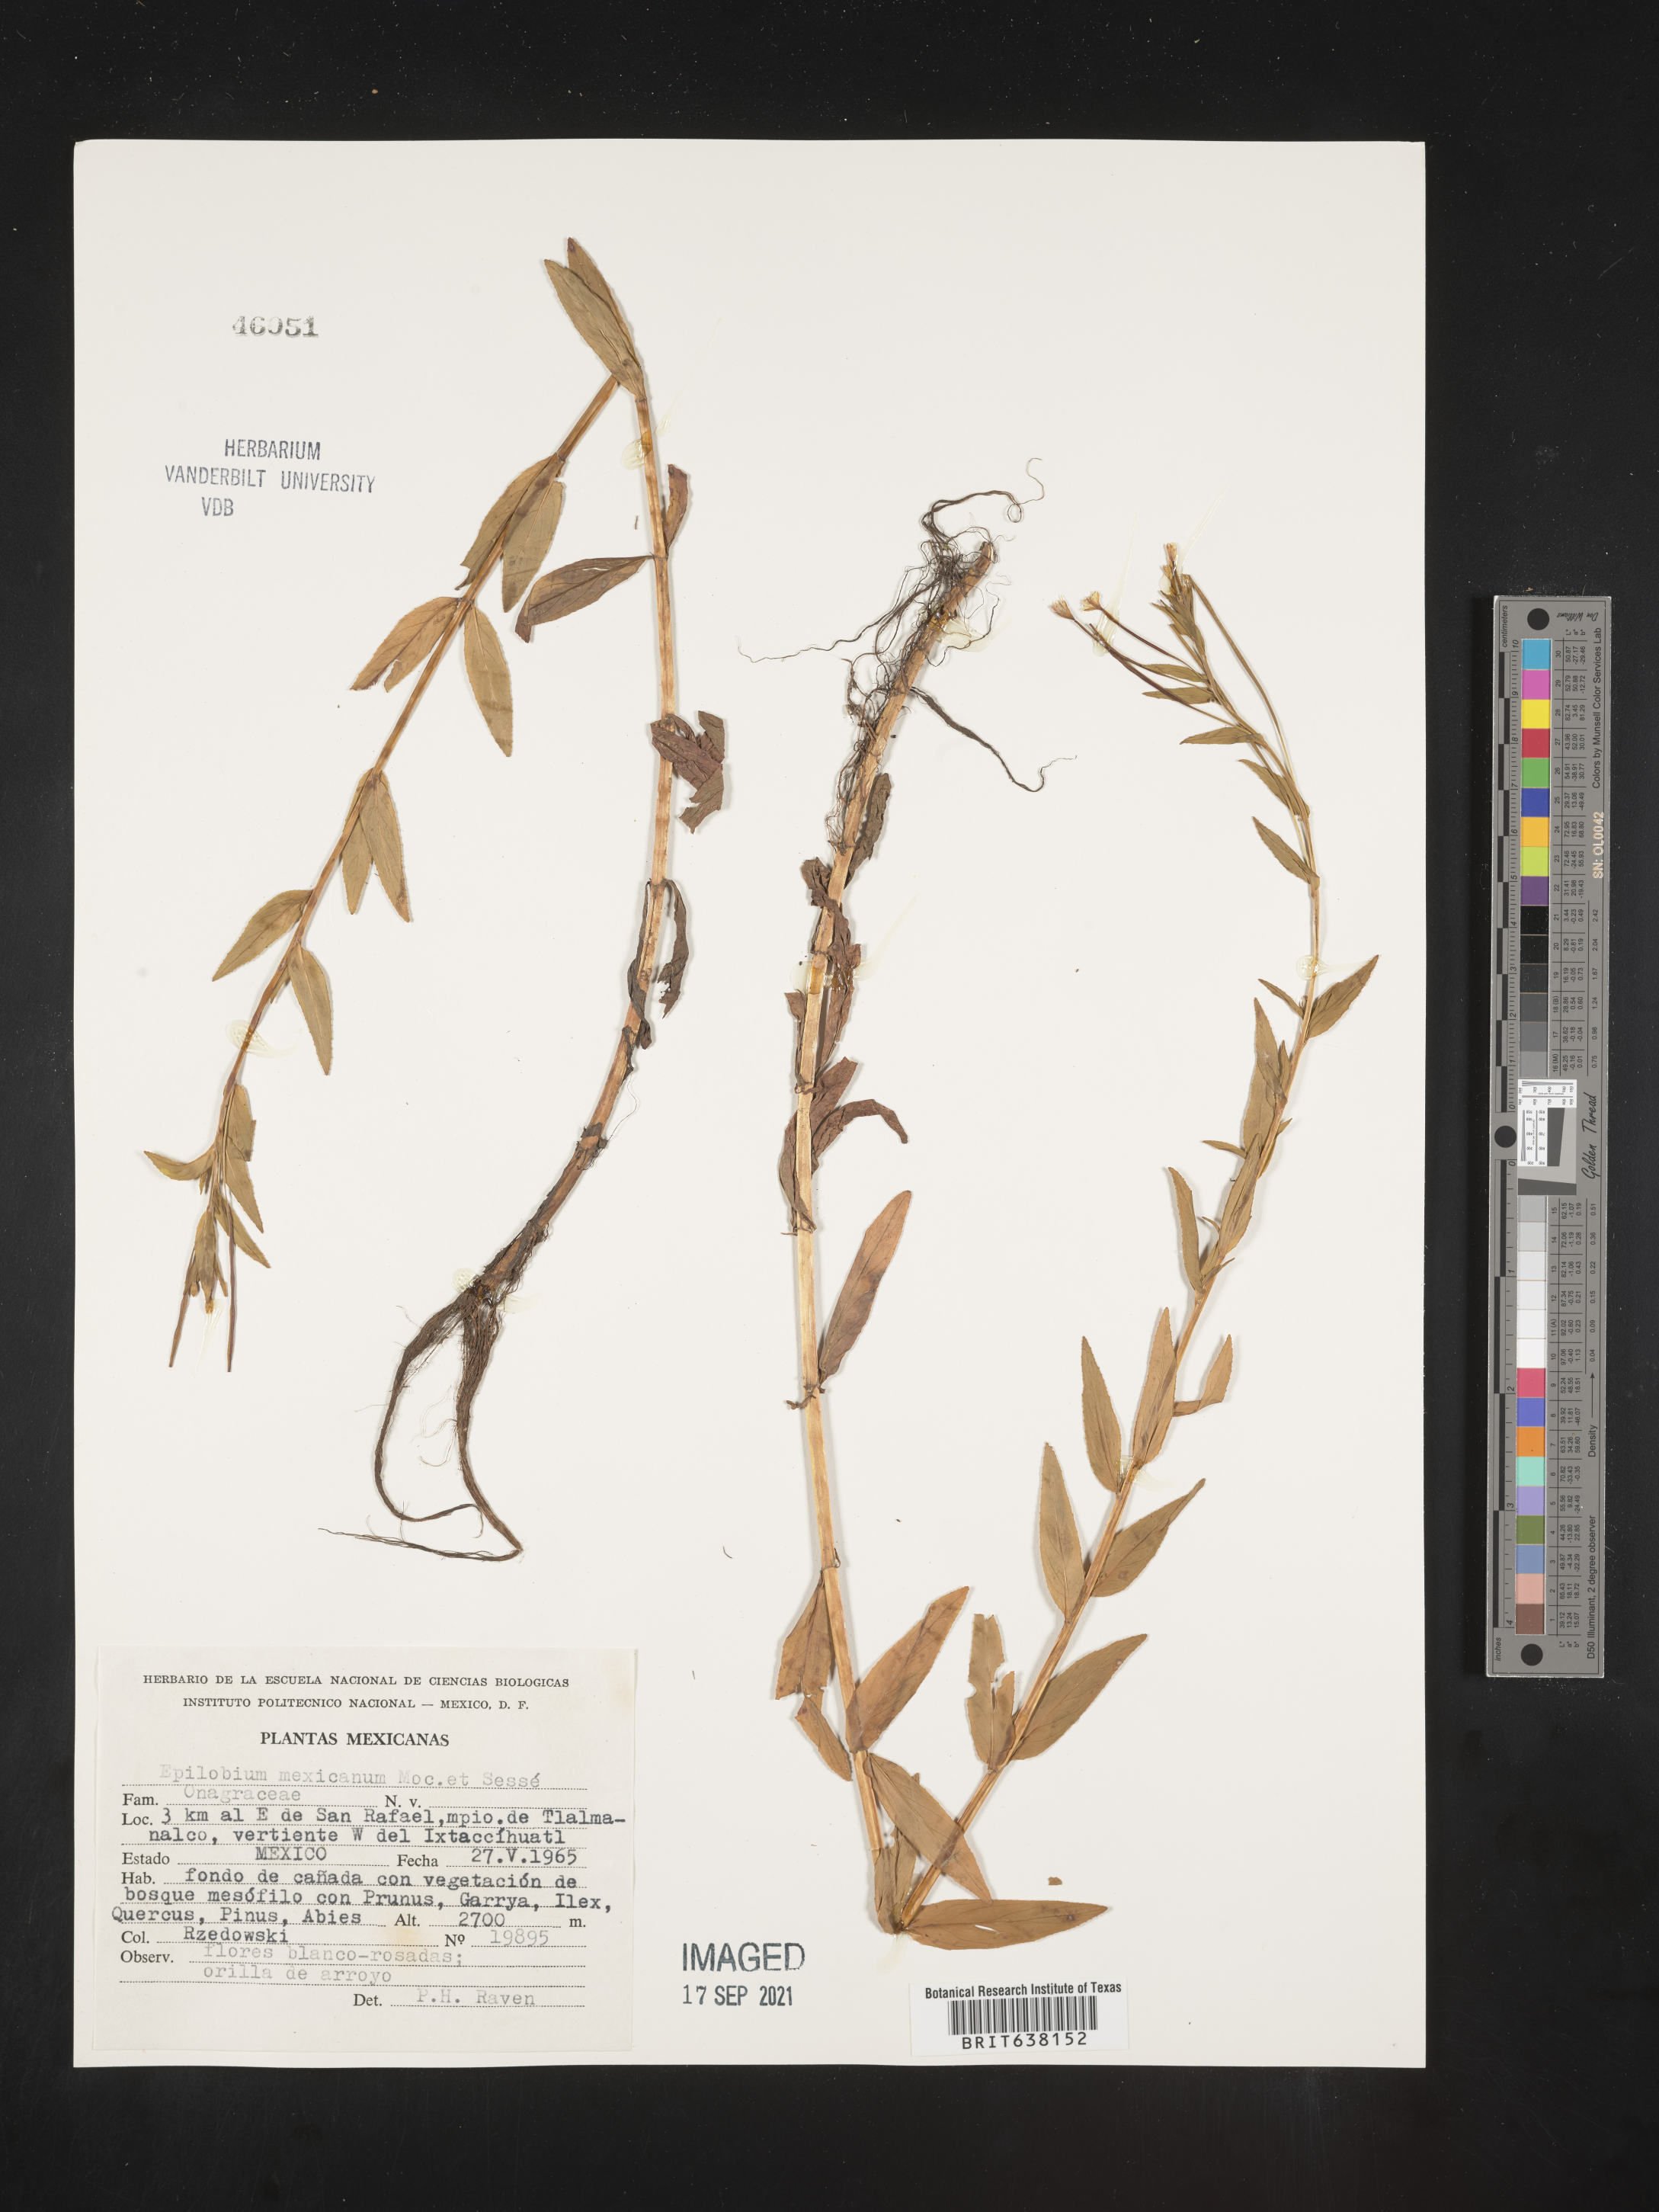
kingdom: Plantae
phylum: Tracheophyta
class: Magnoliopsida
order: Myrtales
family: Onagraceae
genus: Epilobium
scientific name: Epilobium
